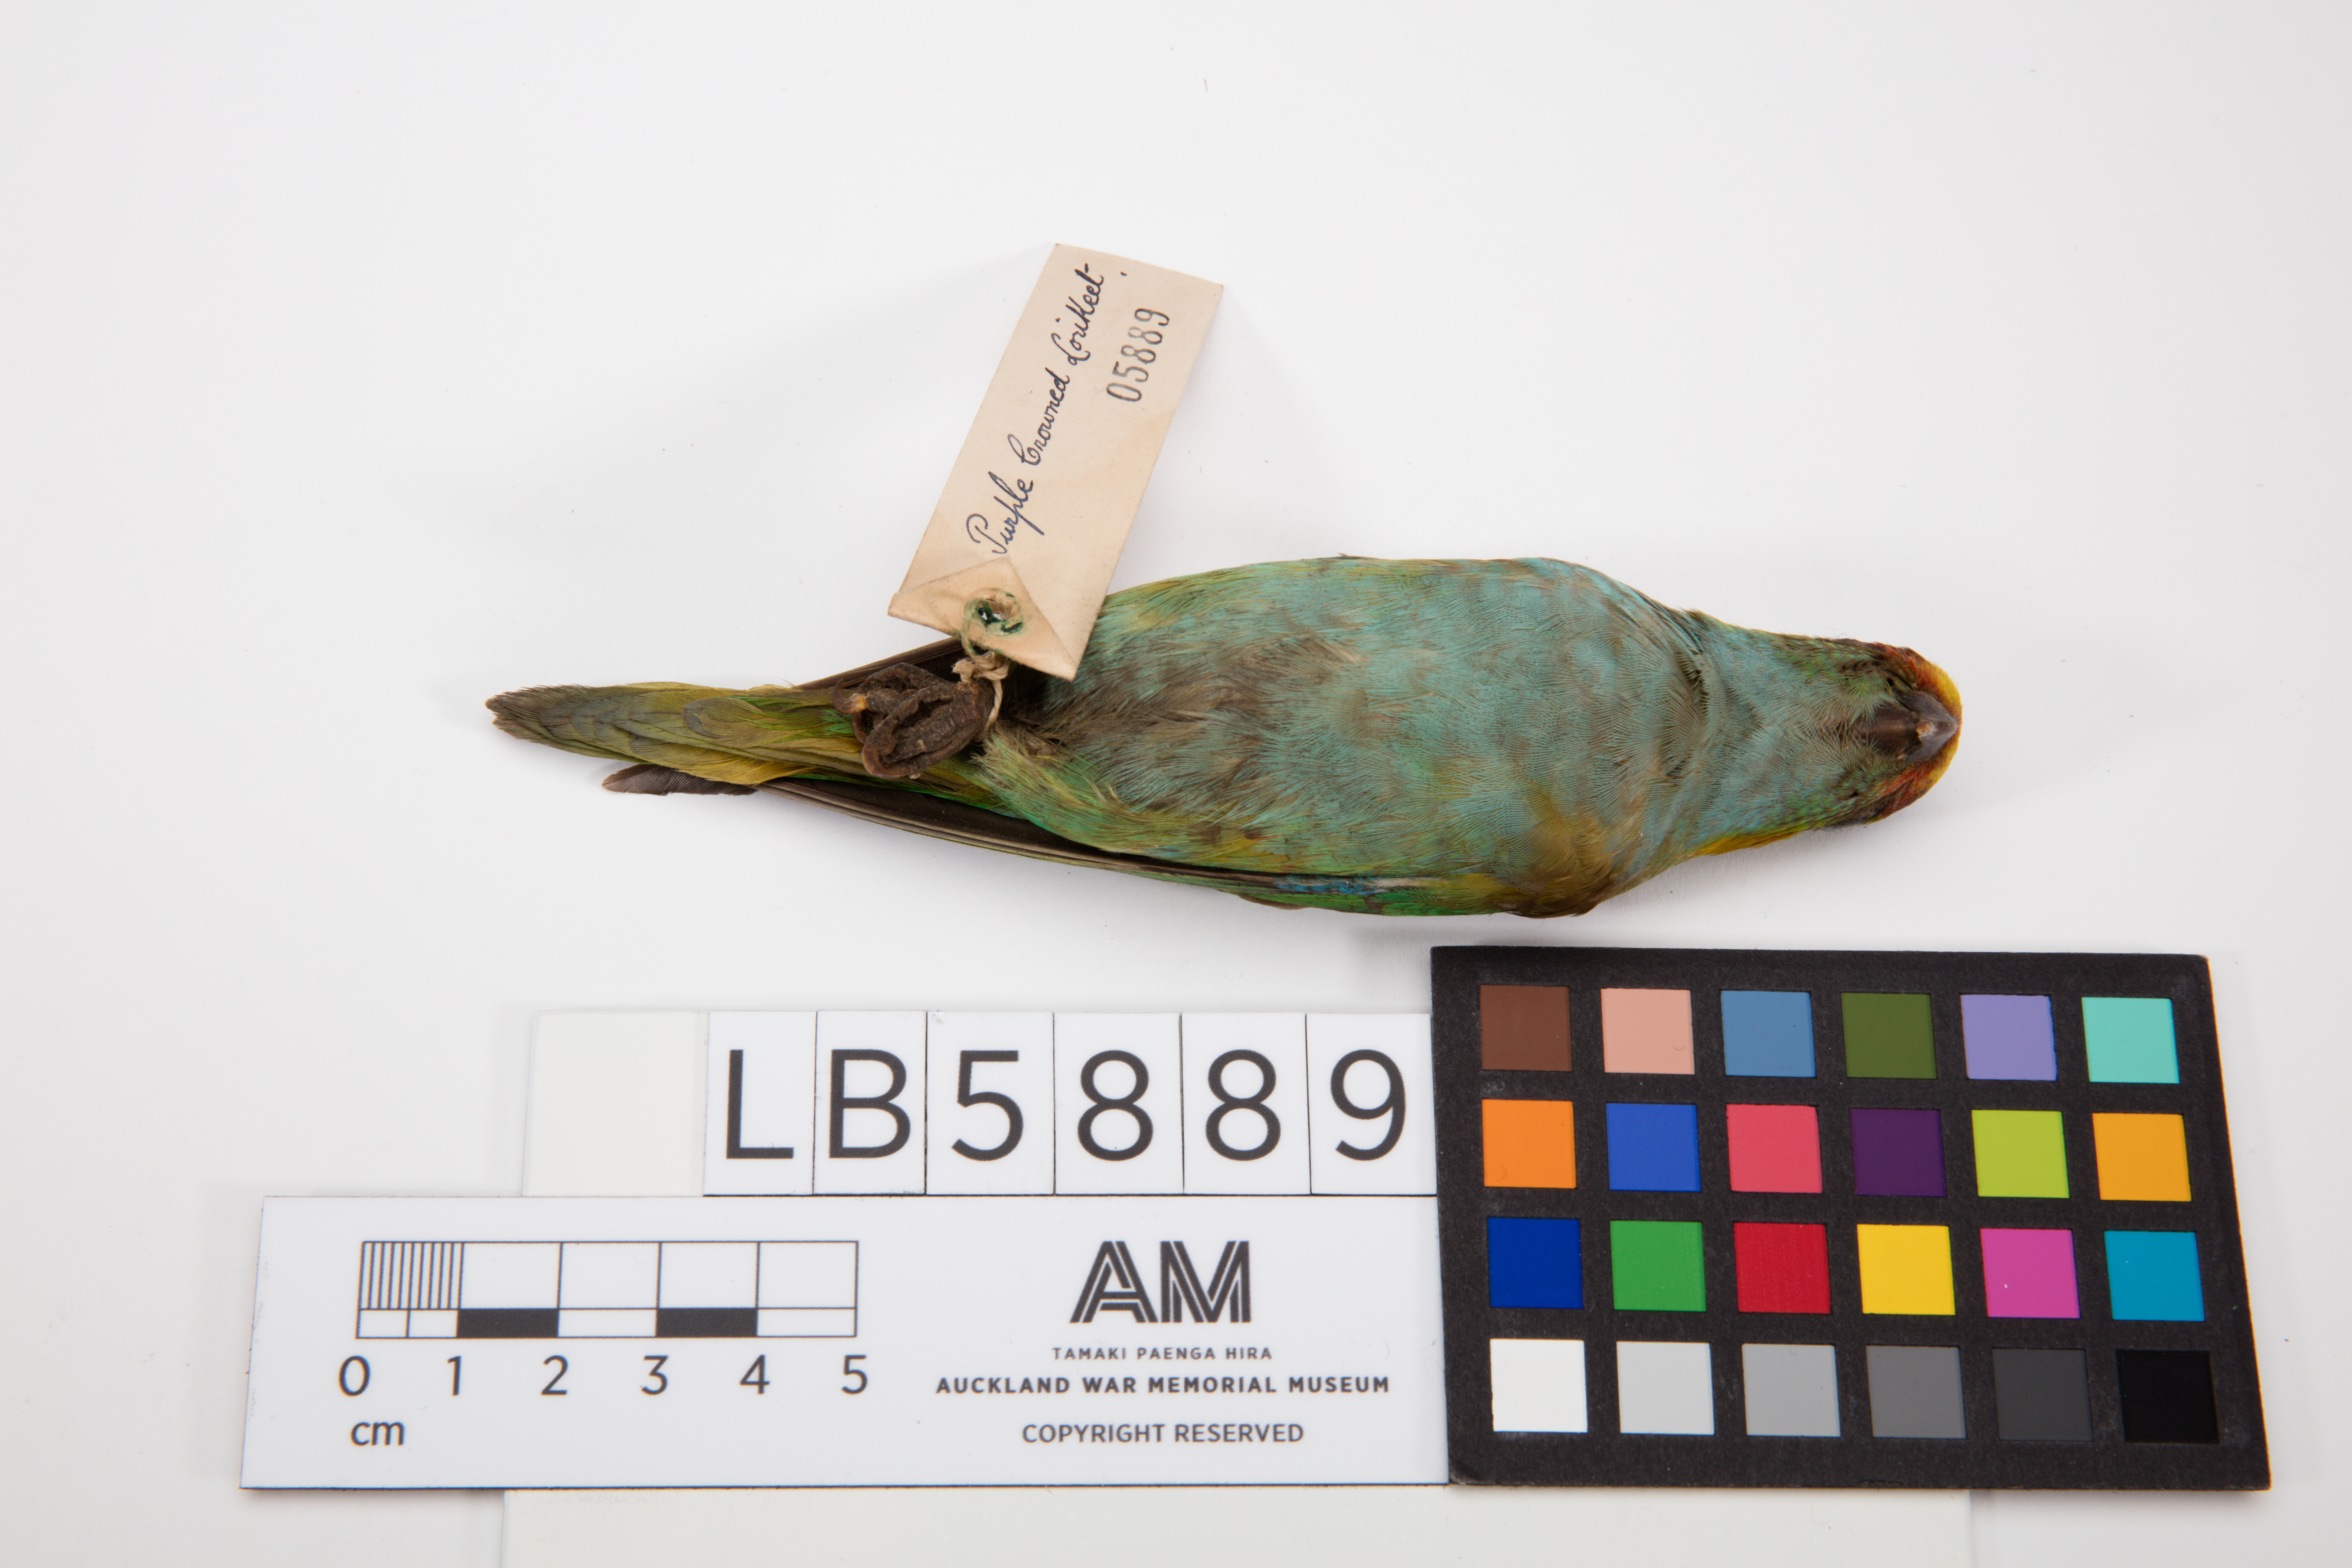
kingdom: Animalia
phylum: Chordata
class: Aves
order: Psittaciformes
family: Psittacidae
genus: Glossopsitta
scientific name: Glossopsitta porphyrocephala
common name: Purple-crowned lorikeet
